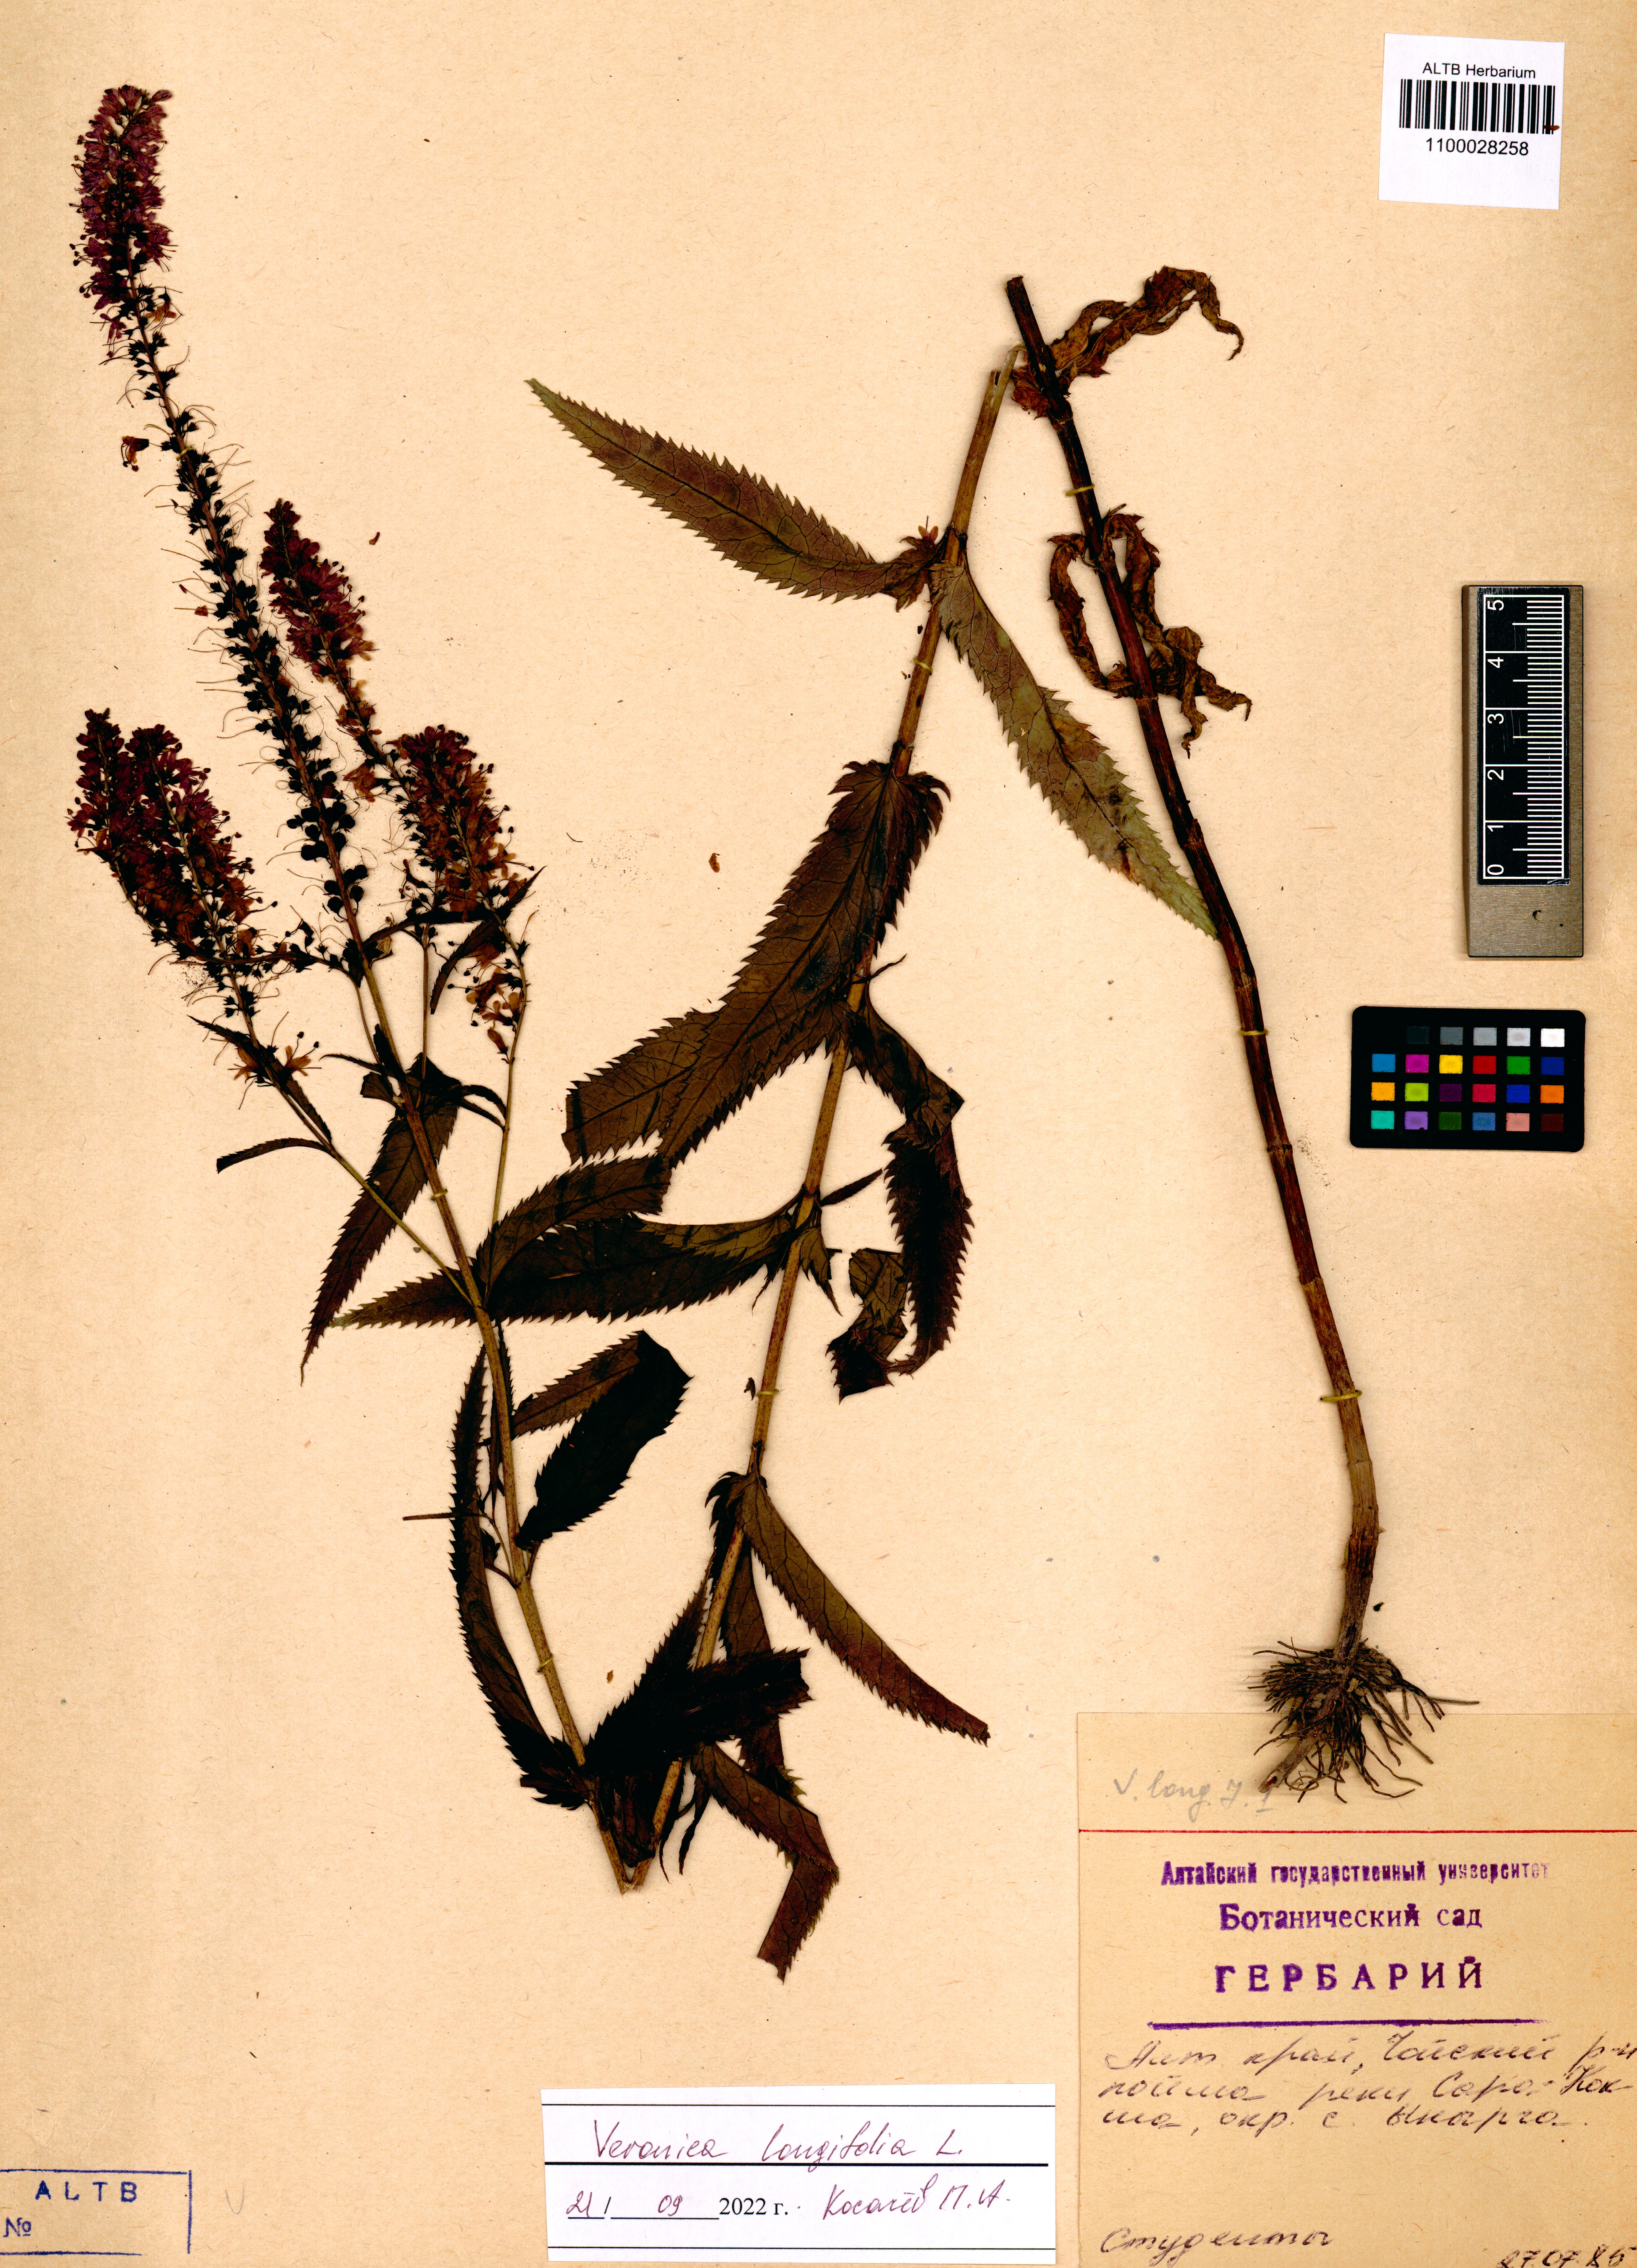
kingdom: Plantae
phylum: Tracheophyta
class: Magnoliopsida
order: Lamiales
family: Plantaginaceae
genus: Veronica
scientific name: Veronica longifolia
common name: Garden speedwell
